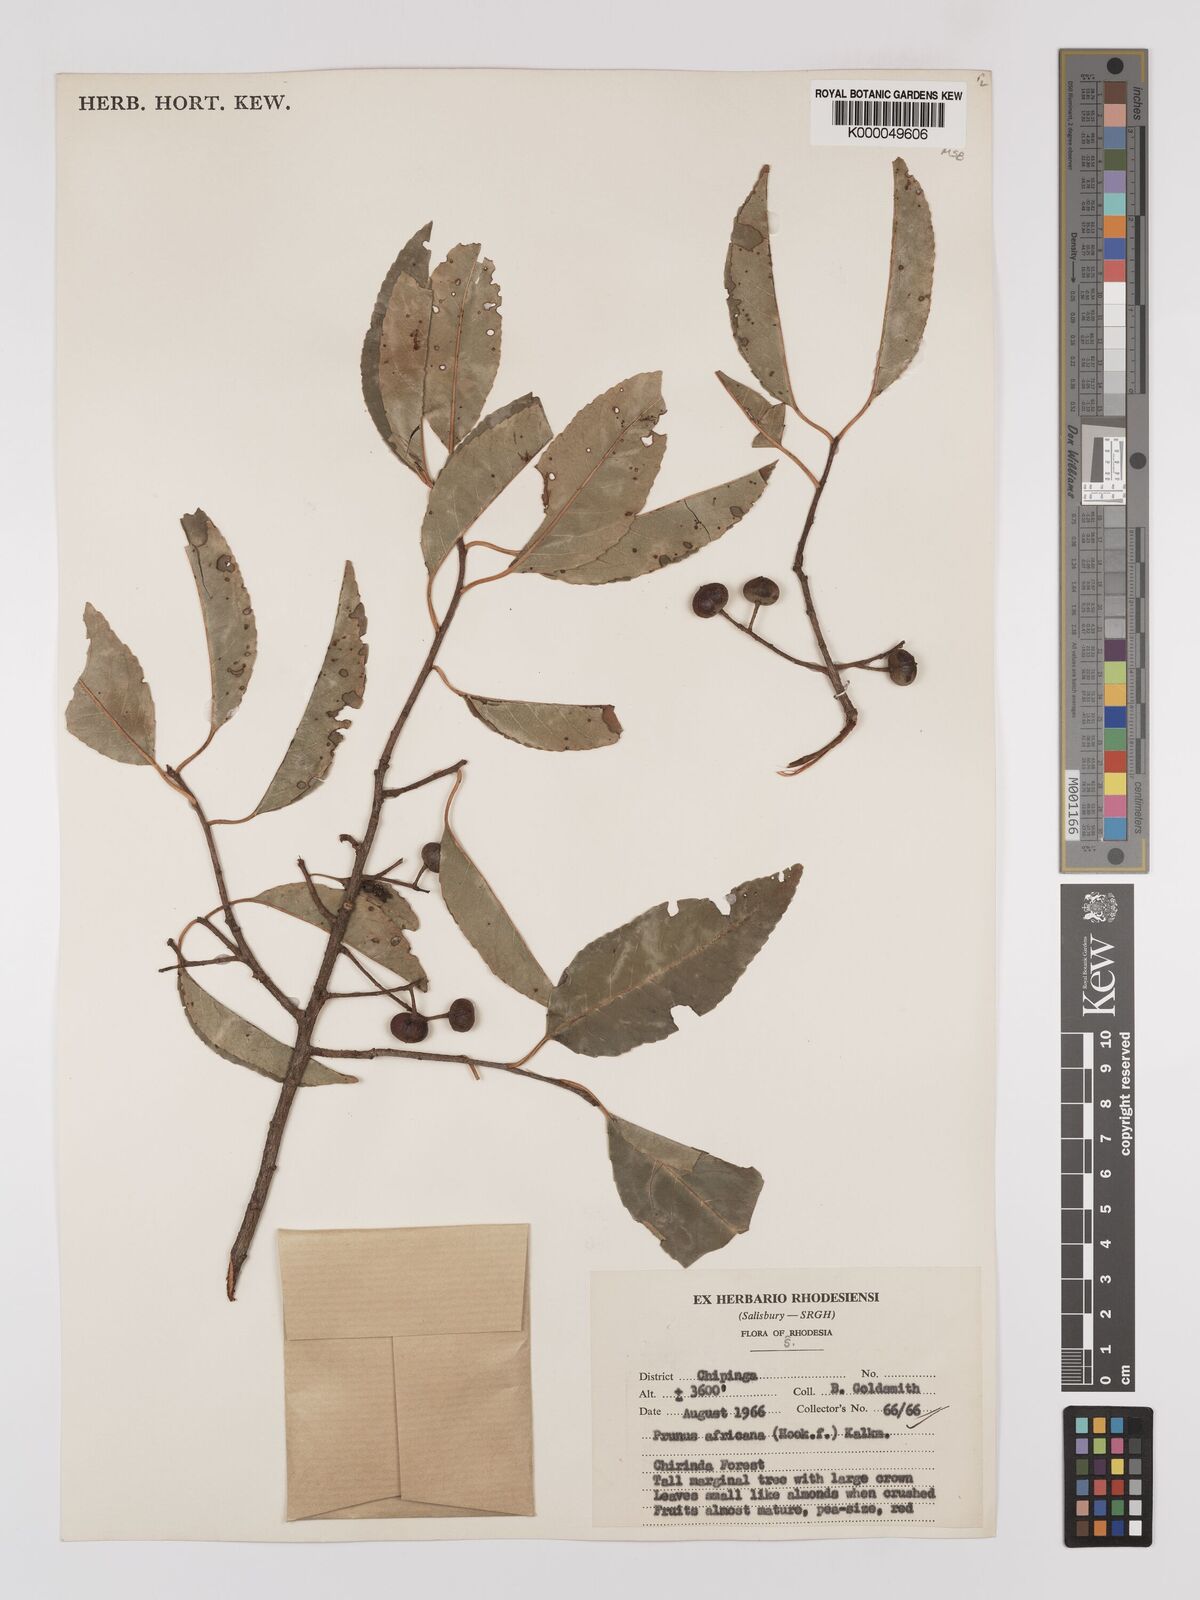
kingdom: Plantae
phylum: Tracheophyta
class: Magnoliopsida
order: Rosales
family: Rosaceae
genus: Prunus
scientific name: Prunus africana
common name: African cherry
